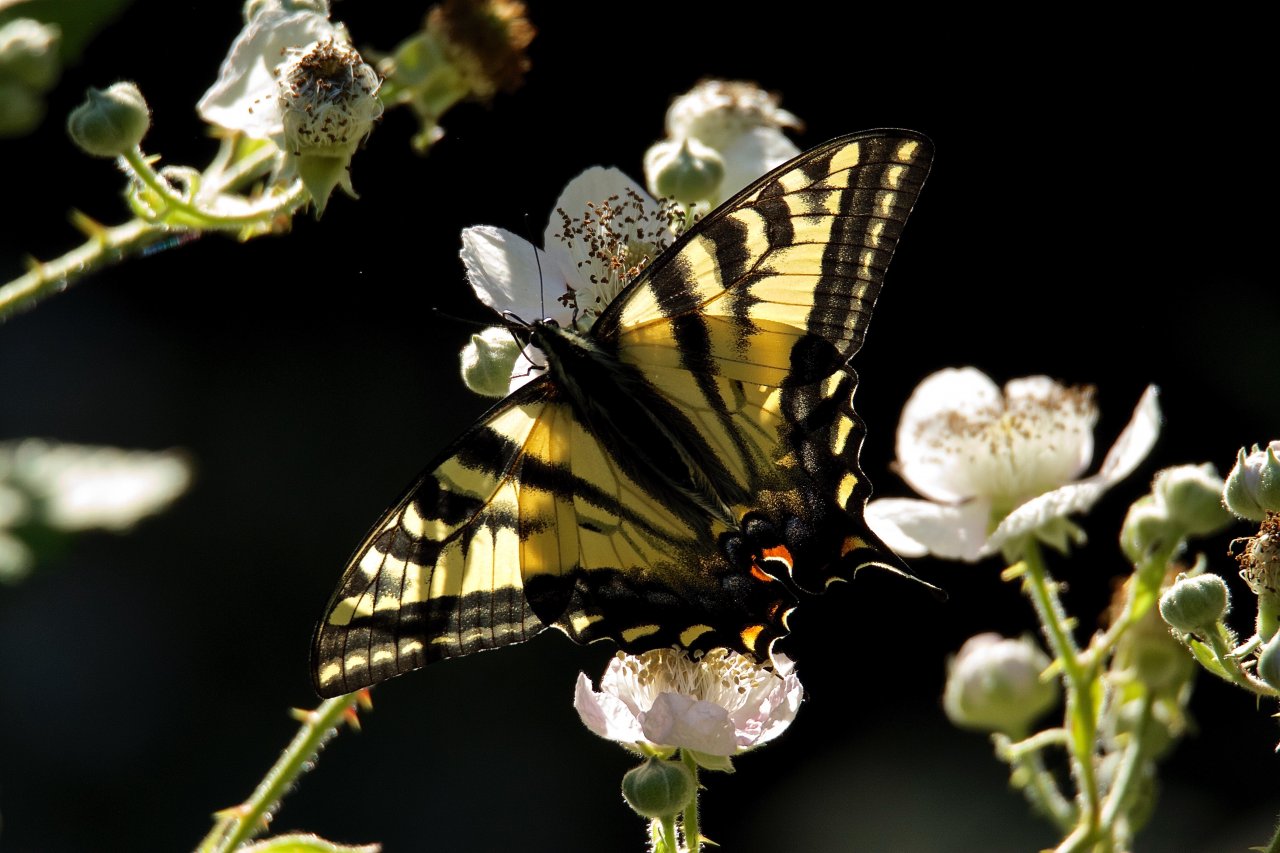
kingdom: Animalia
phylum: Arthropoda
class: Insecta
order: Lepidoptera
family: Papilionidae
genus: Pterourus
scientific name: Pterourus eurymedon
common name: Pale Swallowtail
